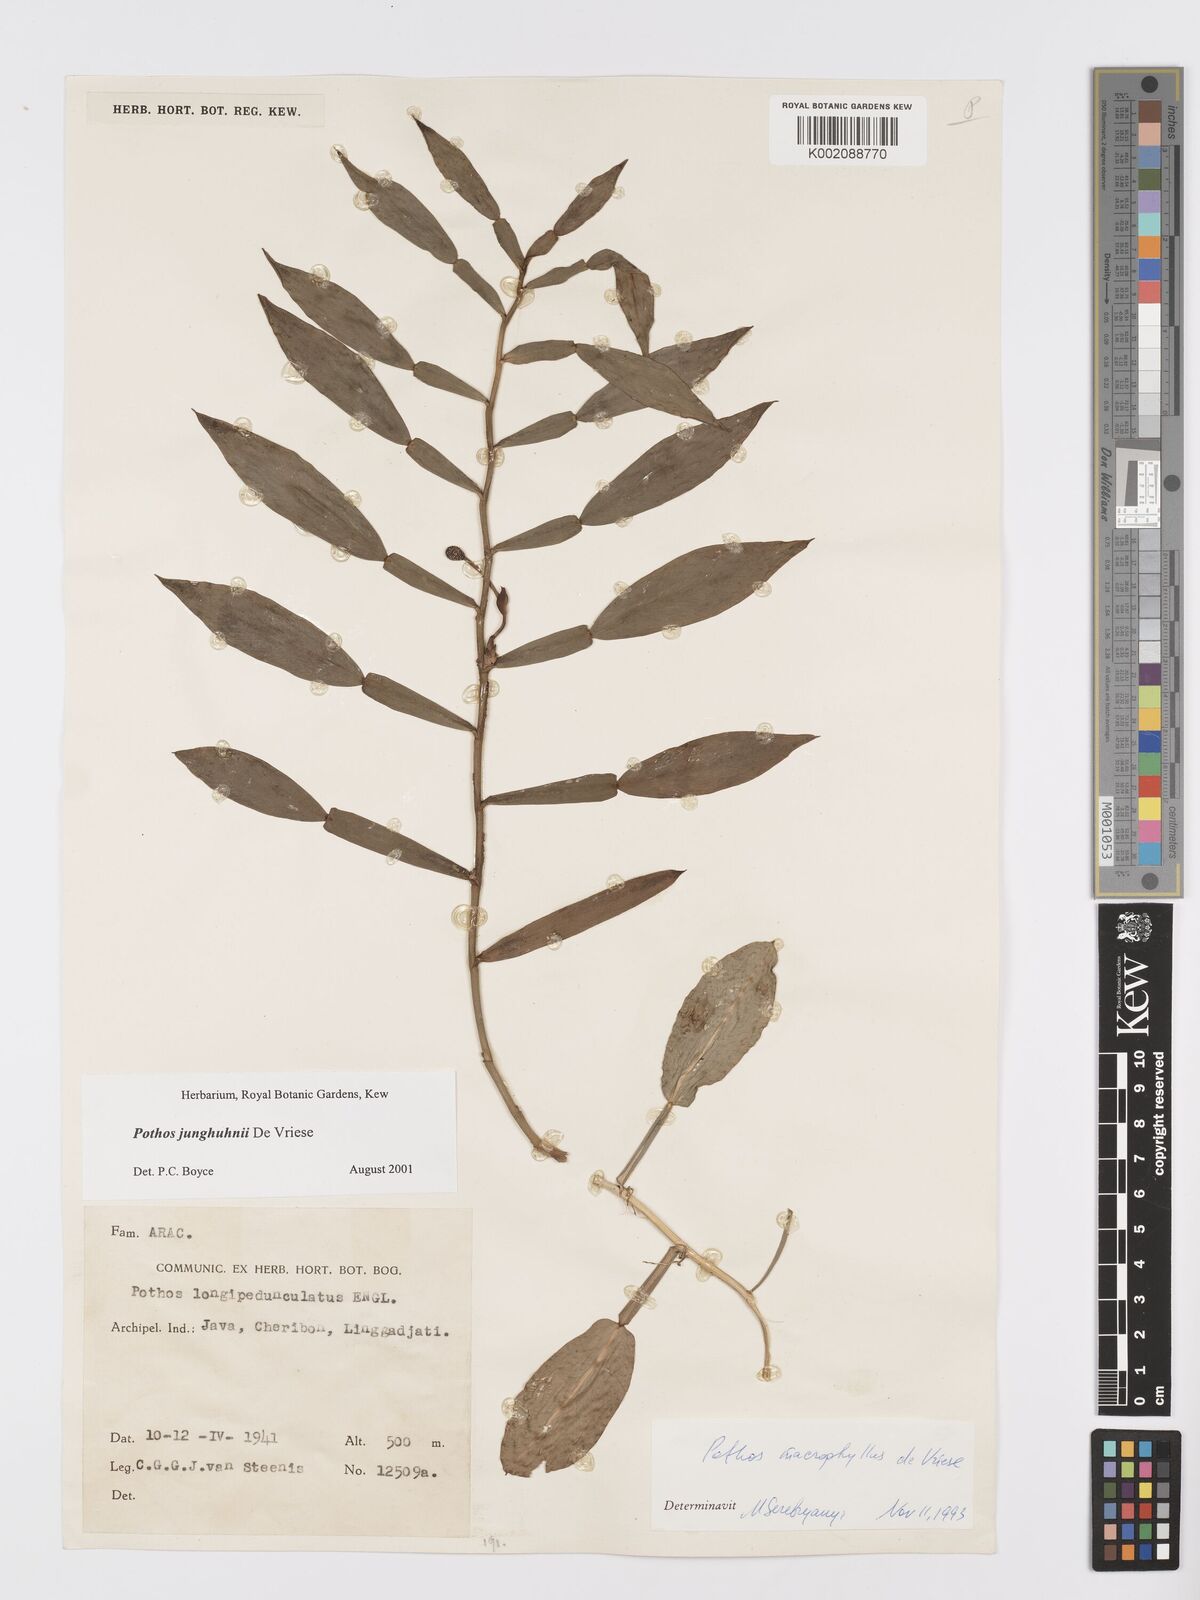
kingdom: Plantae
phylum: Tracheophyta
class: Liliopsida
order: Alismatales
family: Araceae
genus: Pothos
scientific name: Pothos junghuhnii
